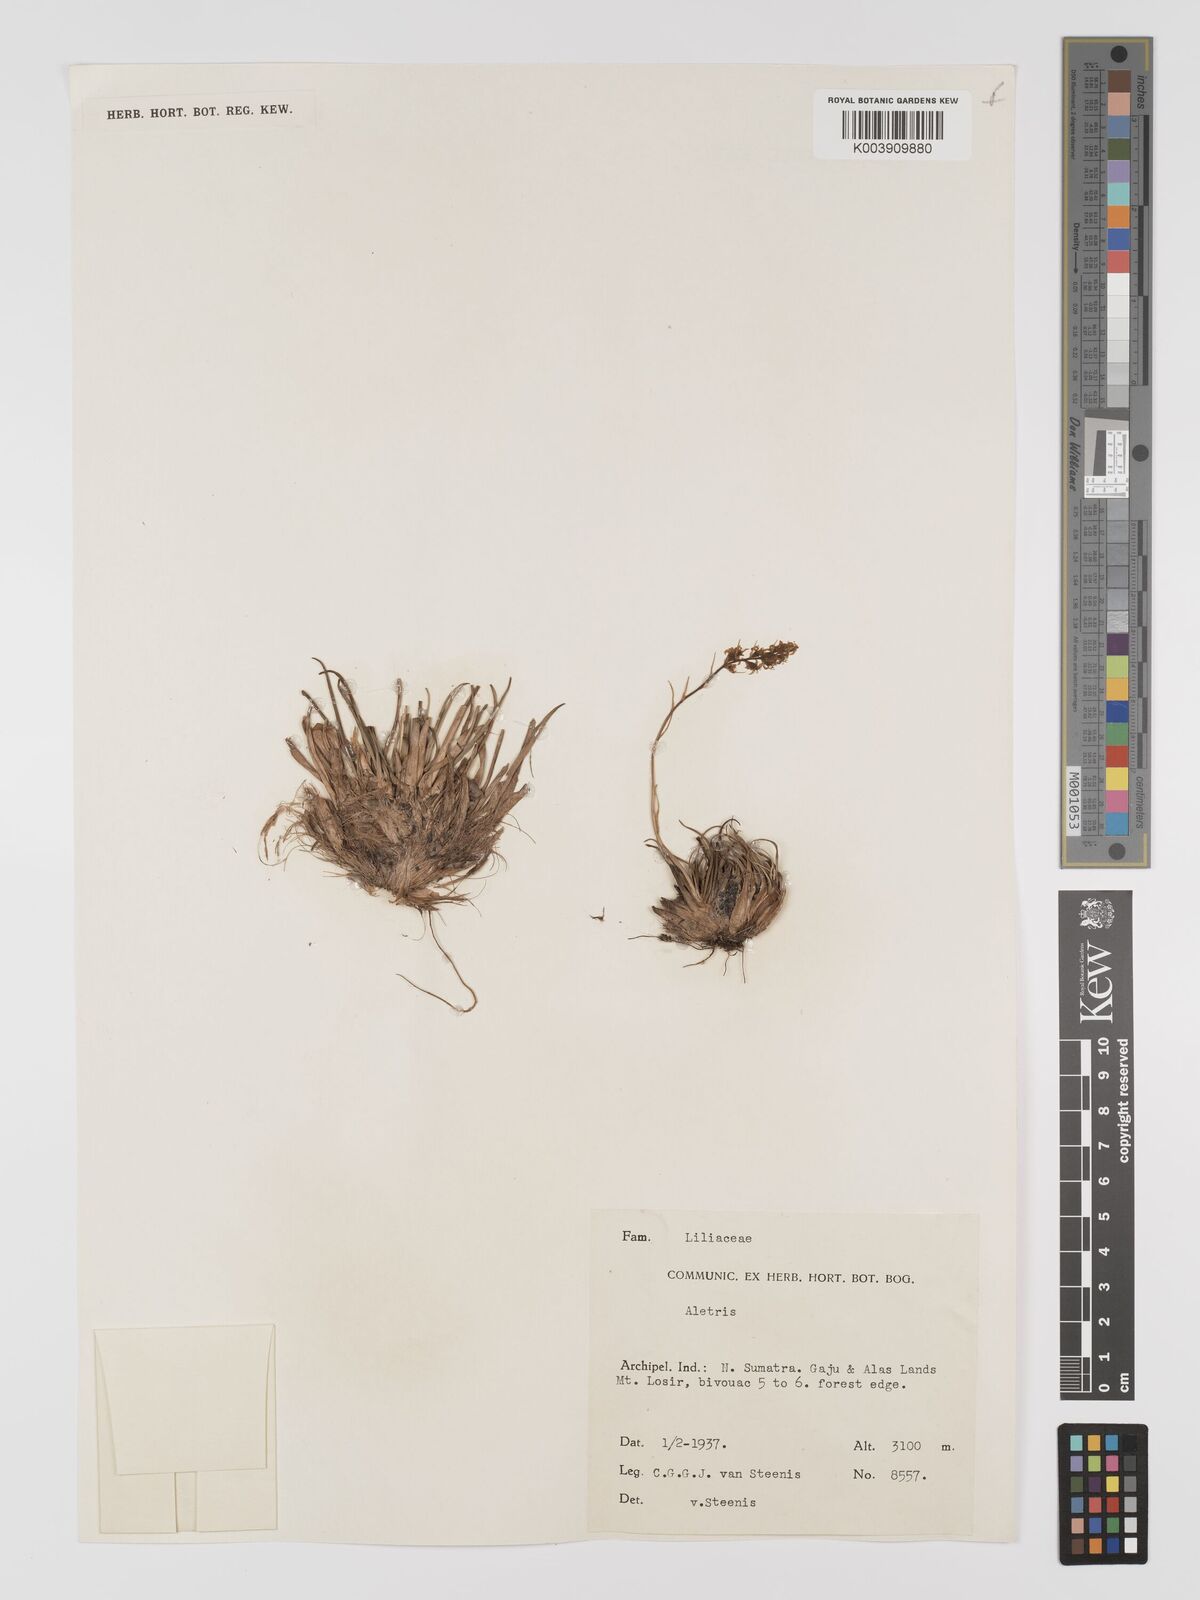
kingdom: Plantae
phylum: Tracheophyta
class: Liliopsida
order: Dioscoreales
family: Nartheciaceae
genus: Aletris
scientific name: Aletris
